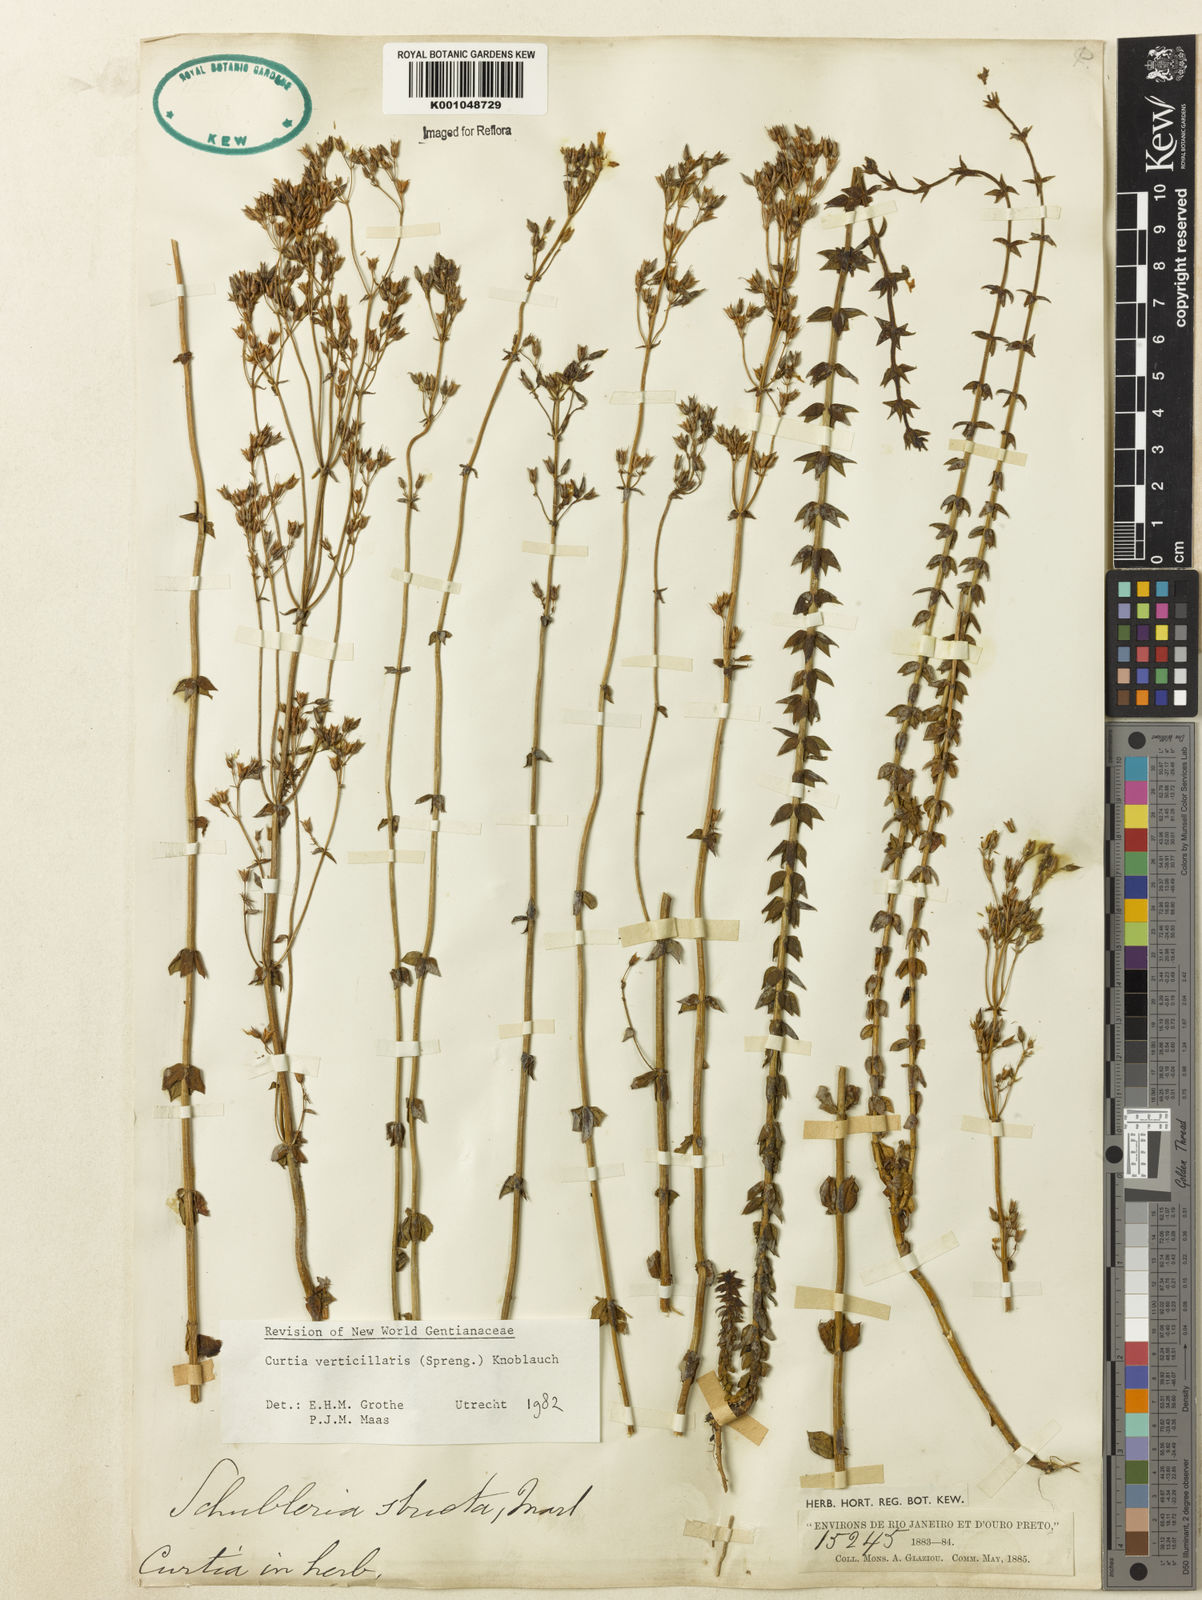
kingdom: Plantae
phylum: Tracheophyta
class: Magnoliopsida
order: Gentianales
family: Gentianaceae
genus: Curtia
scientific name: Curtia verticillaris
